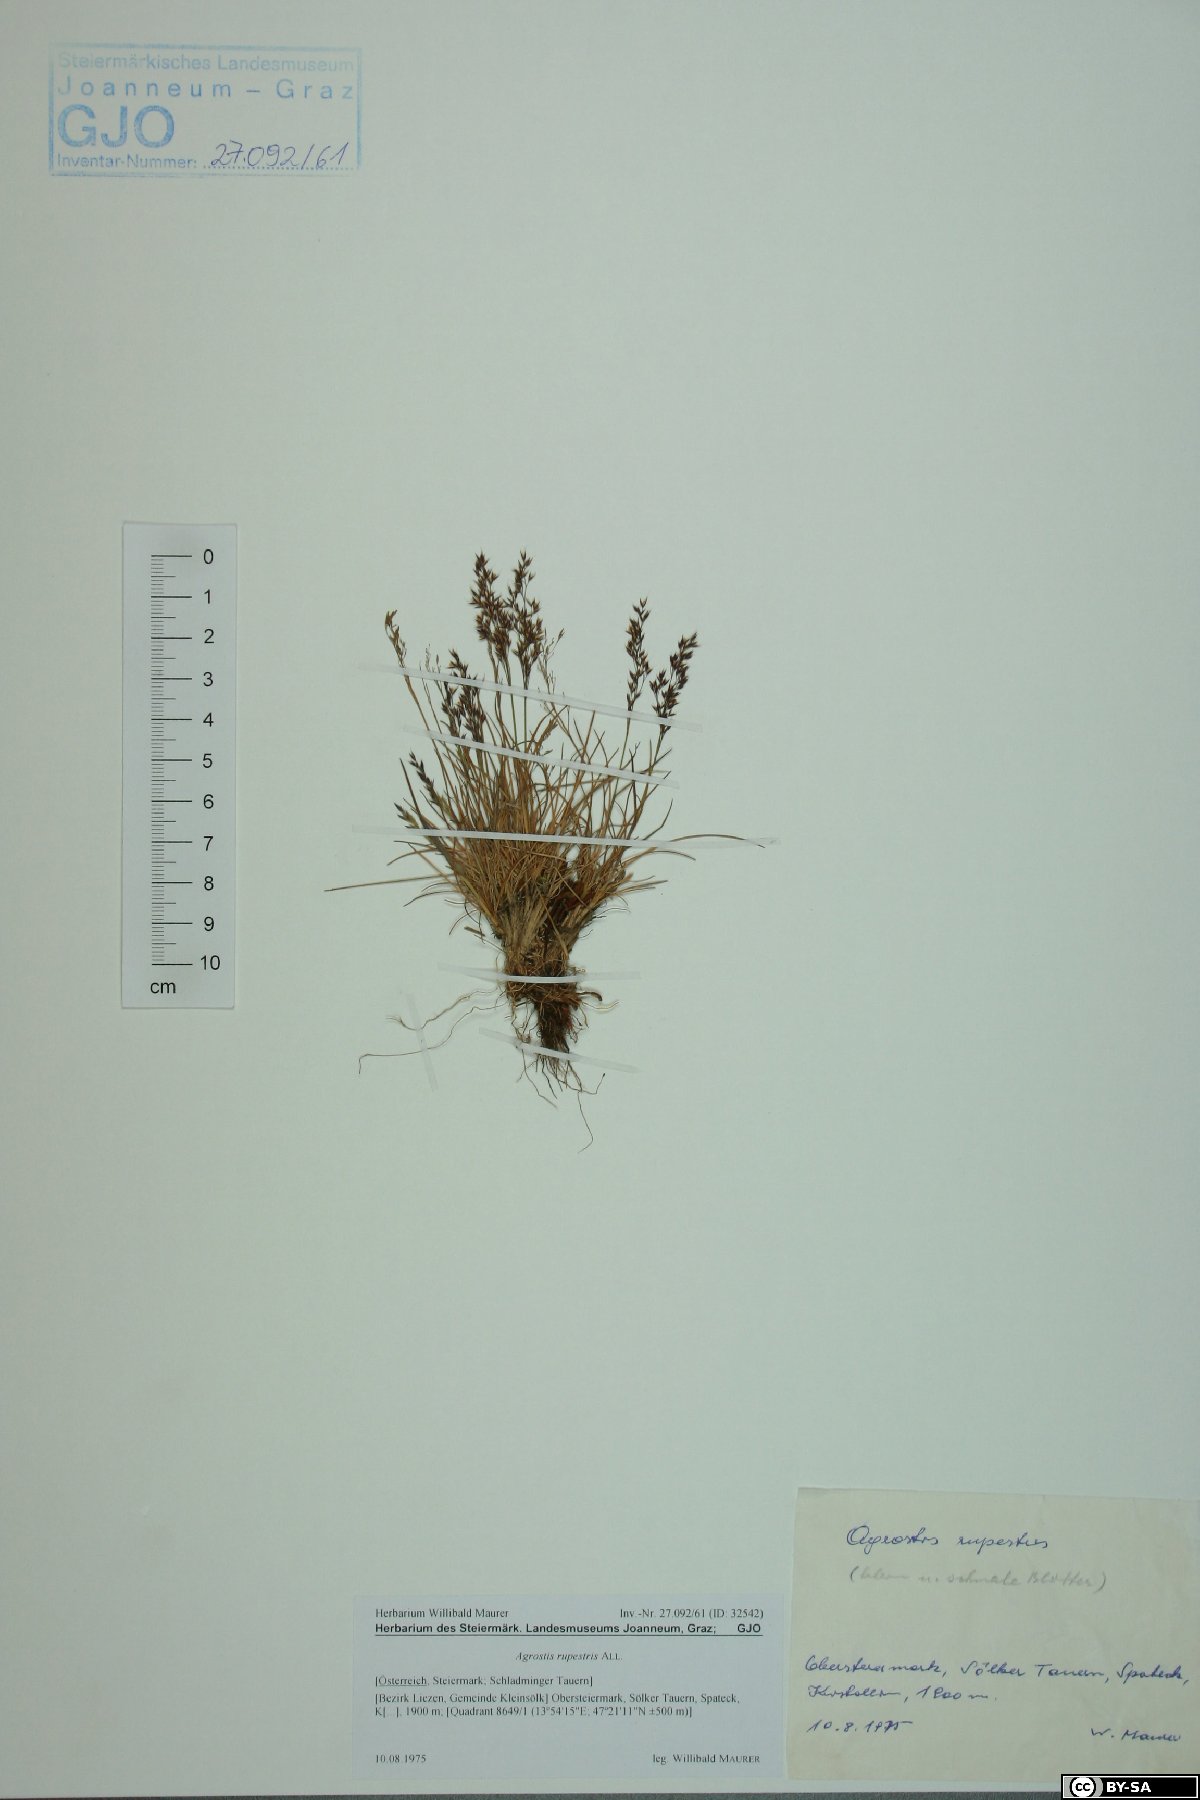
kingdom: Plantae
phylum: Tracheophyta
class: Liliopsida
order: Poales
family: Poaceae
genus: Agrostis
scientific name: Agrostis rupestris
